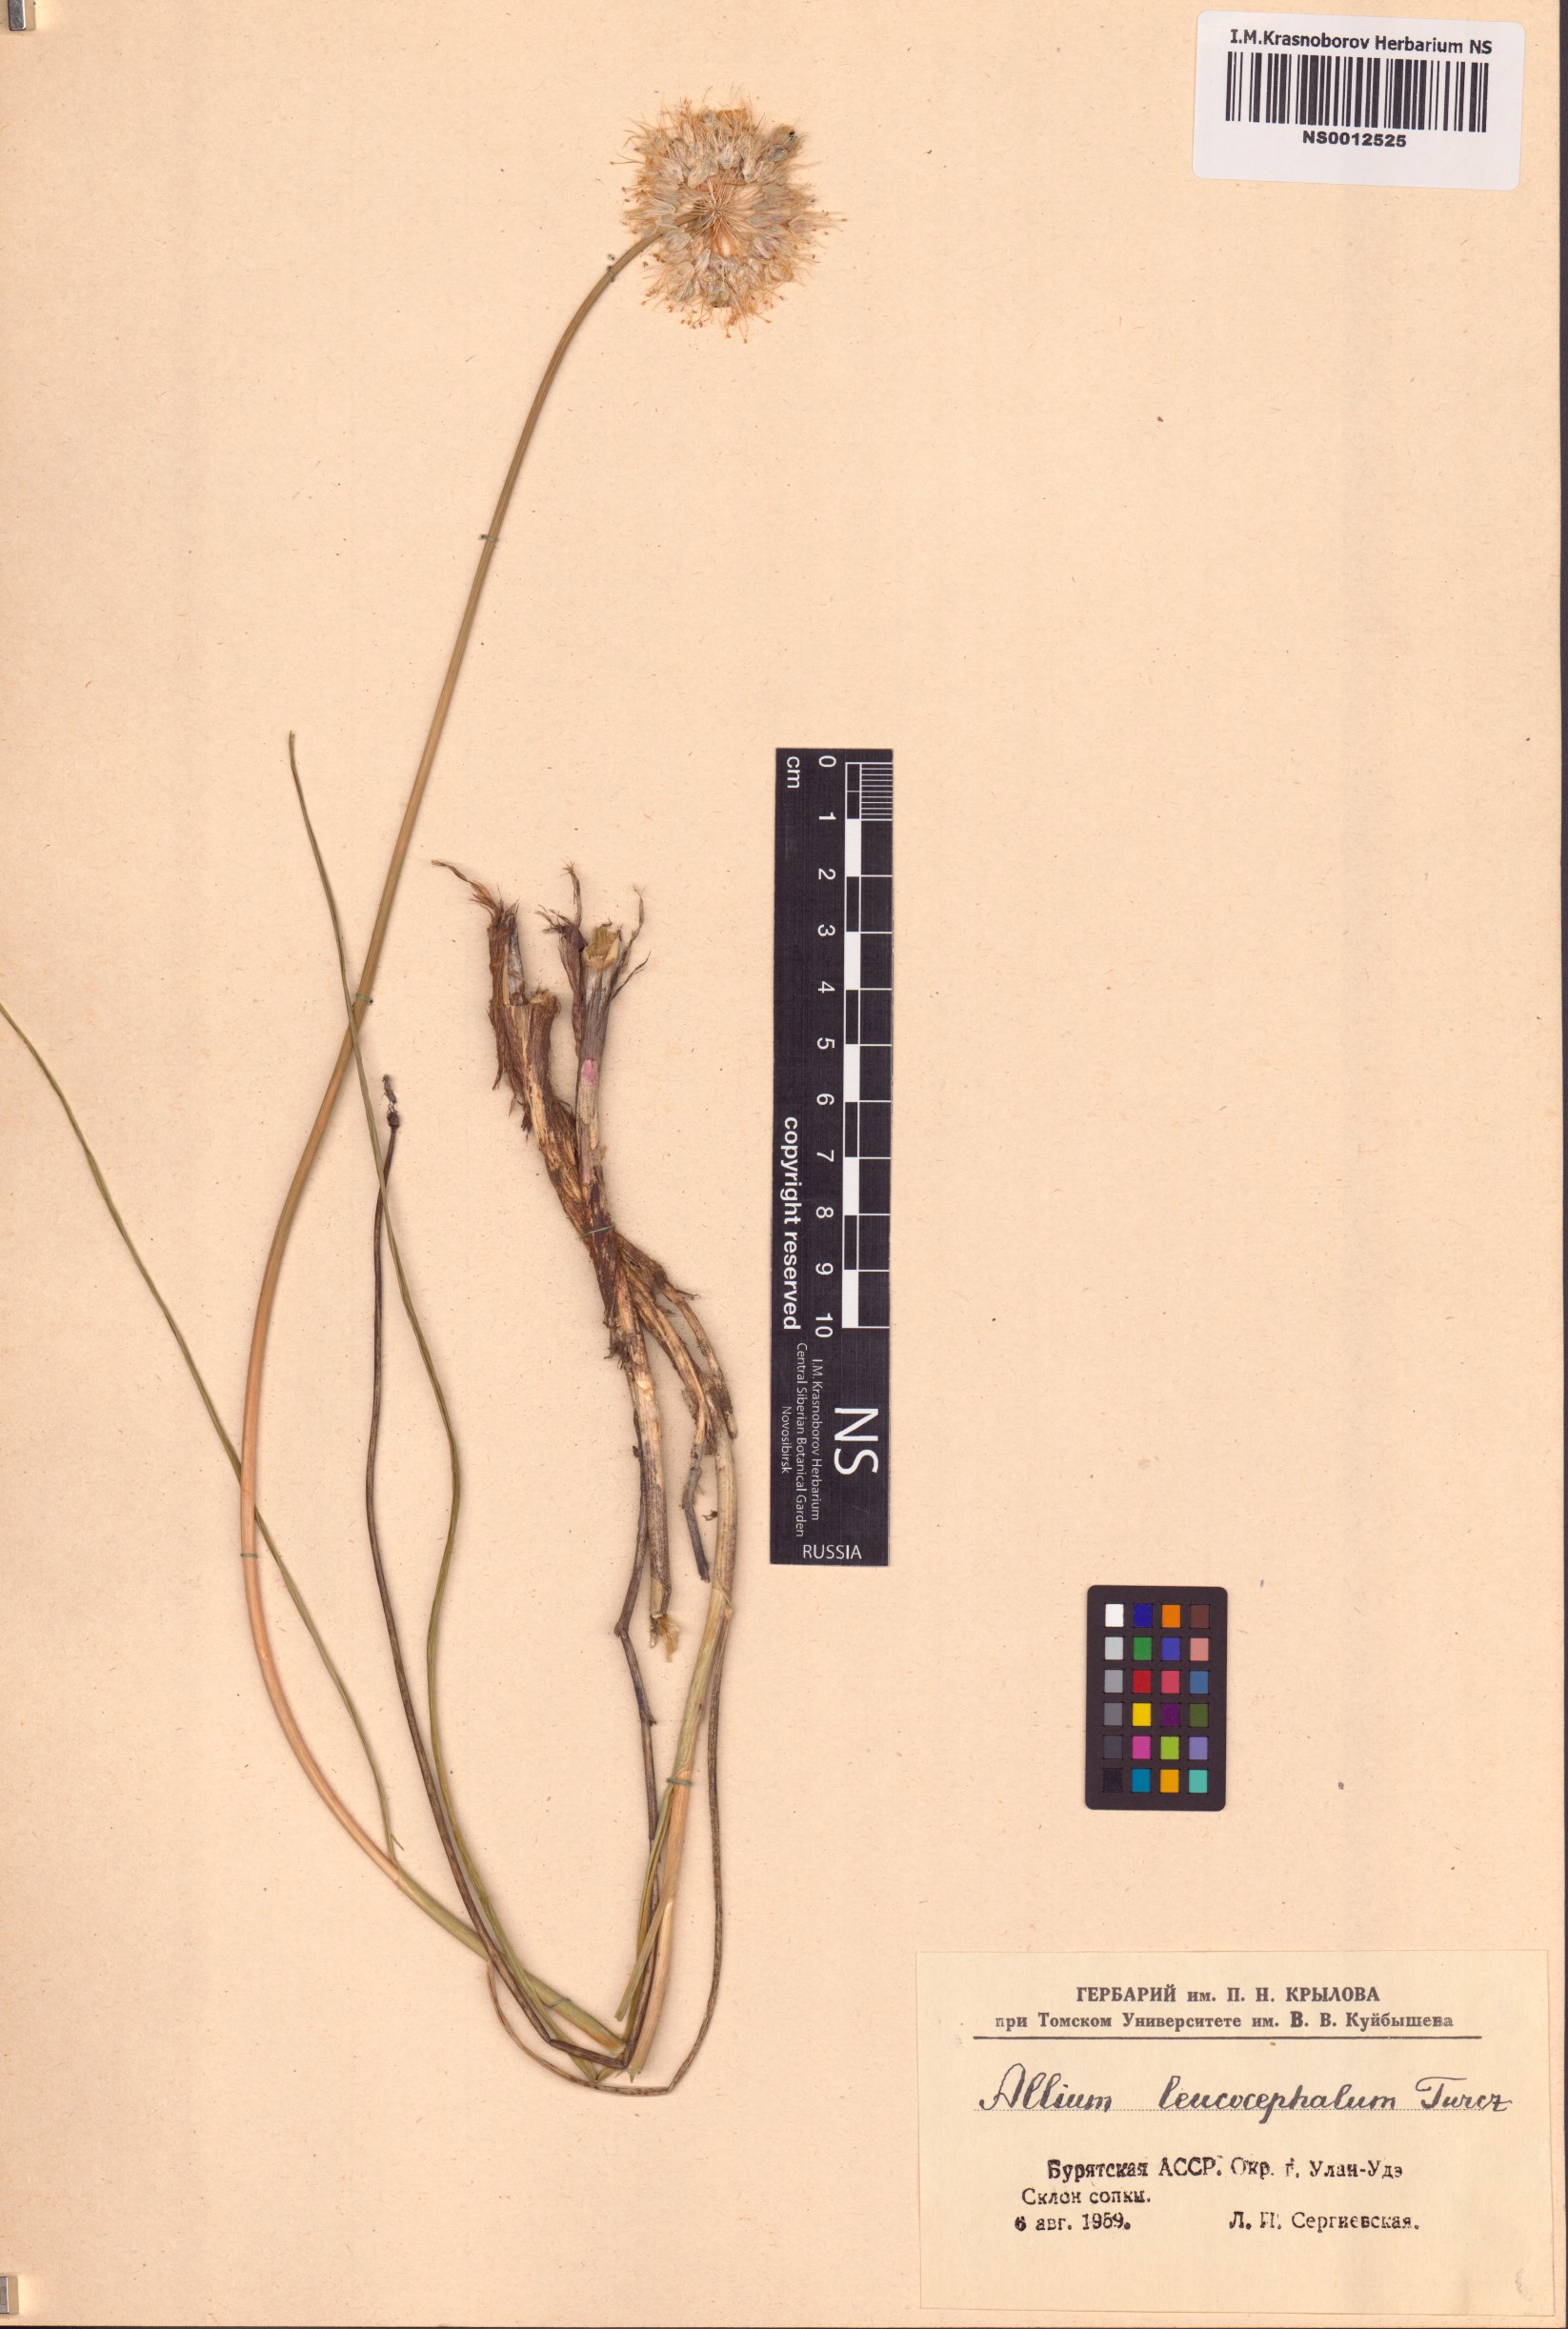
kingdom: Plantae
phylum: Tracheophyta
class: Liliopsida
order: Asparagales
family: Amaryllidaceae
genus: Allium
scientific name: Allium leucocephalum
